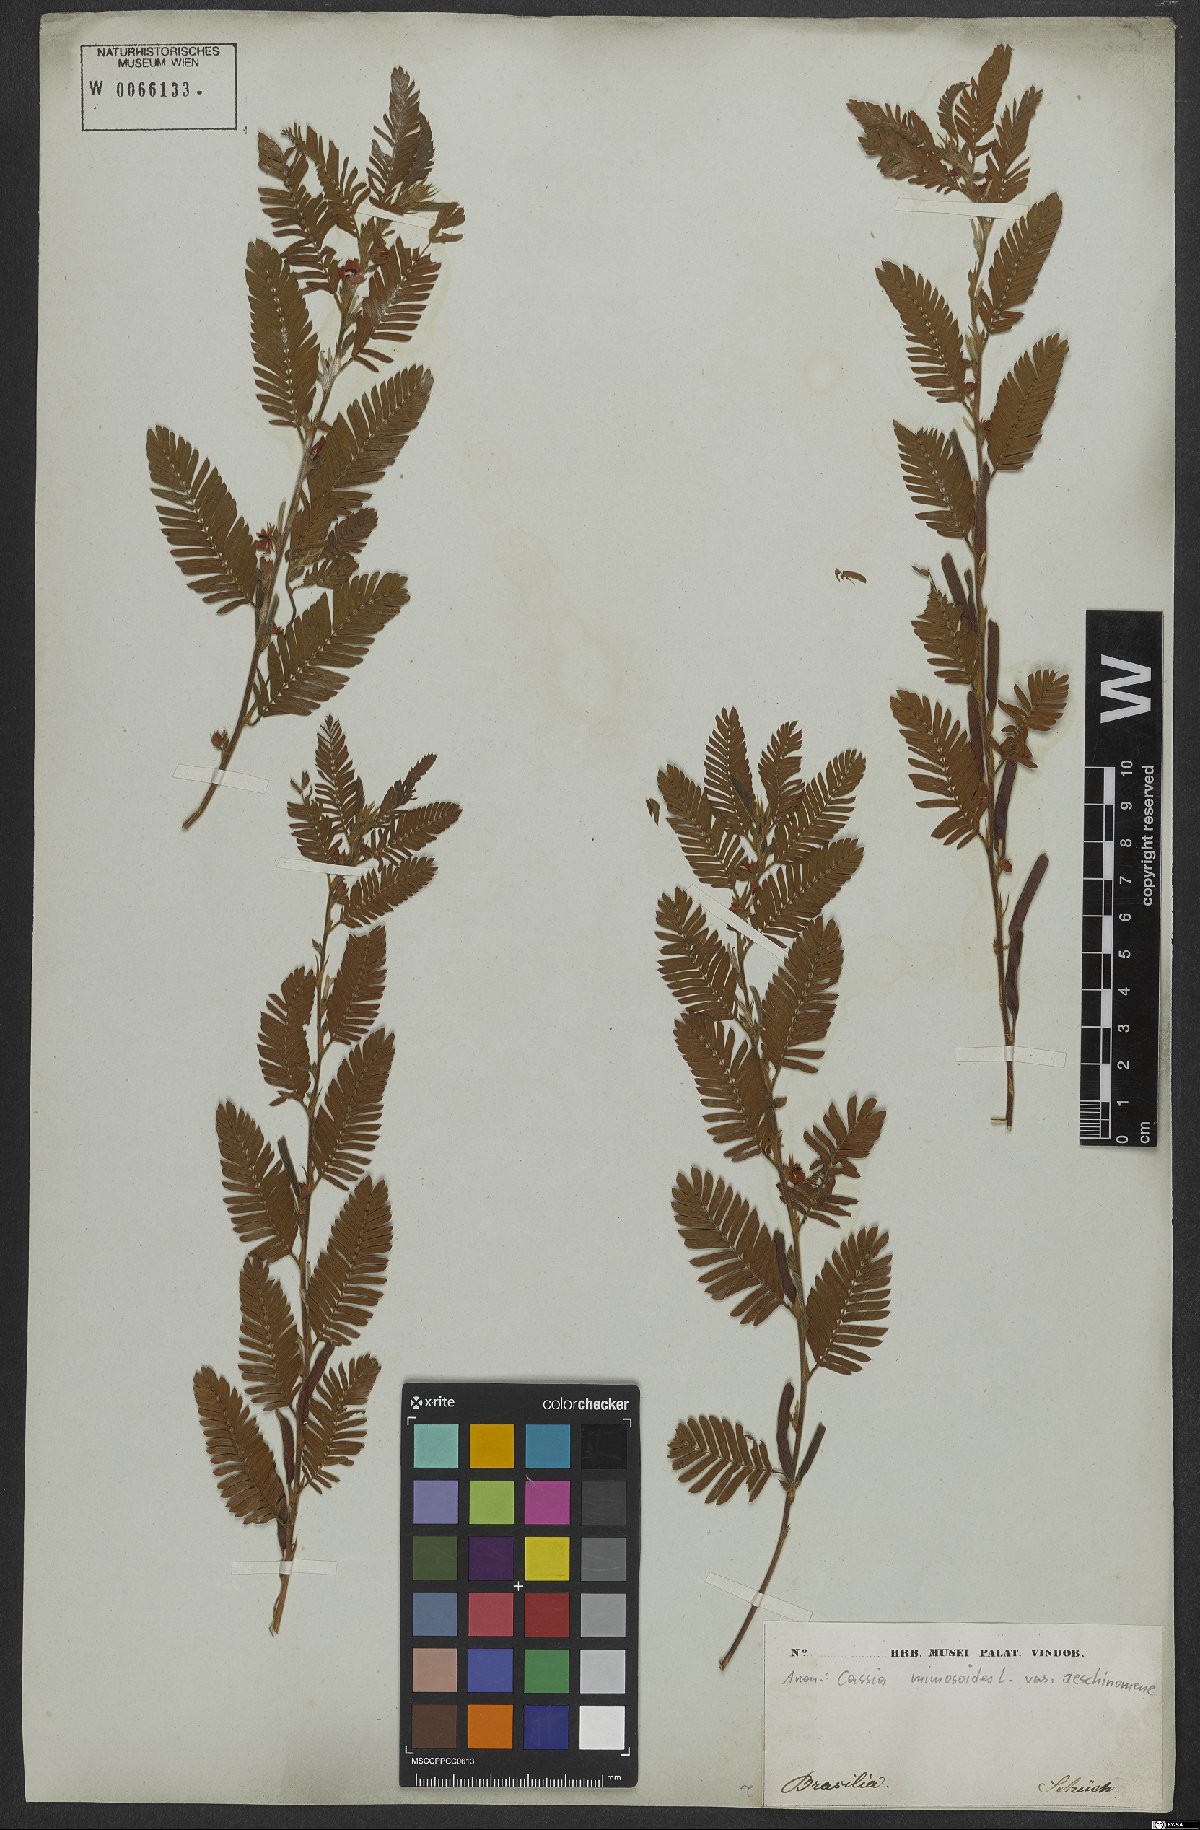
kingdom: Plantae
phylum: Tracheophyta
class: Magnoliopsida
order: Fabales
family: Fabaceae
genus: Chamaecrista
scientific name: Chamaecrista nictitans
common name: Sensitive cassia
